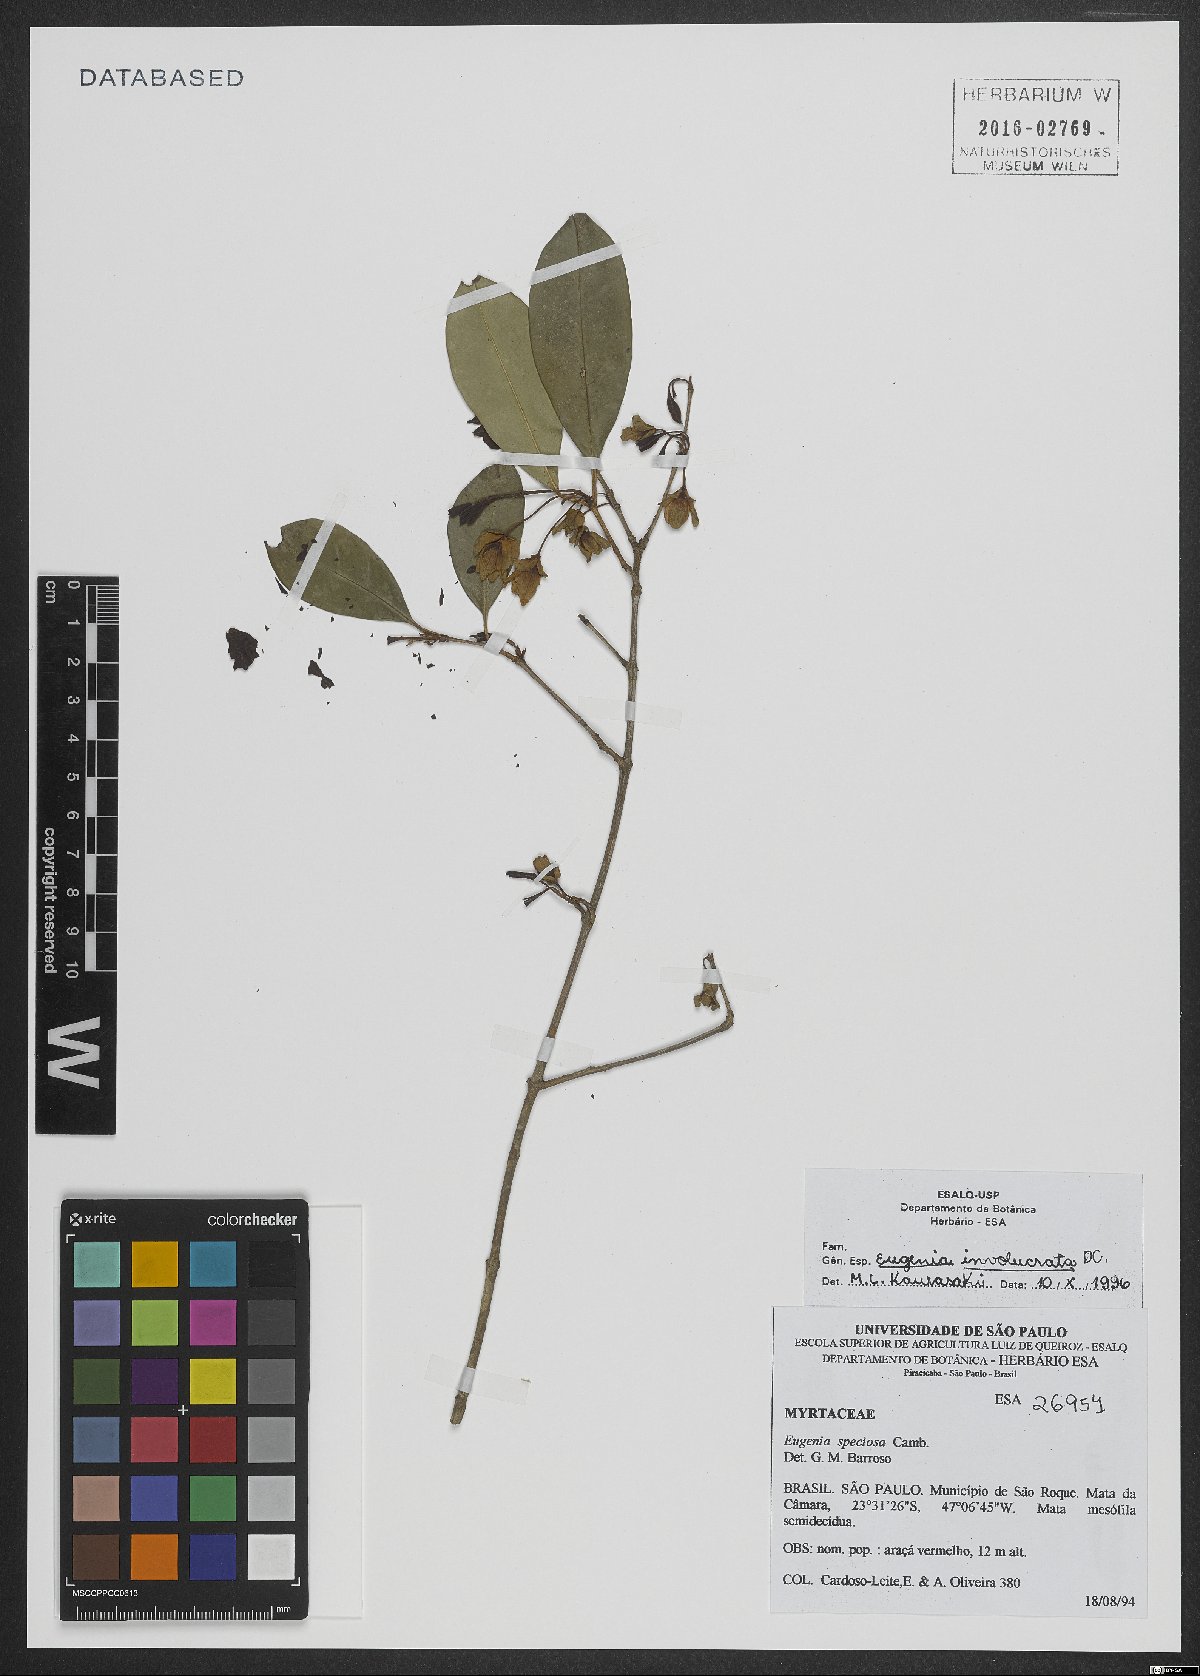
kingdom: Plantae
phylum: Tracheophyta
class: Magnoliopsida
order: Myrtales
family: Myrtaceae
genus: Eugenia
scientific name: Eugenia involucrata
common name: Cherry-of-the-rio grande
